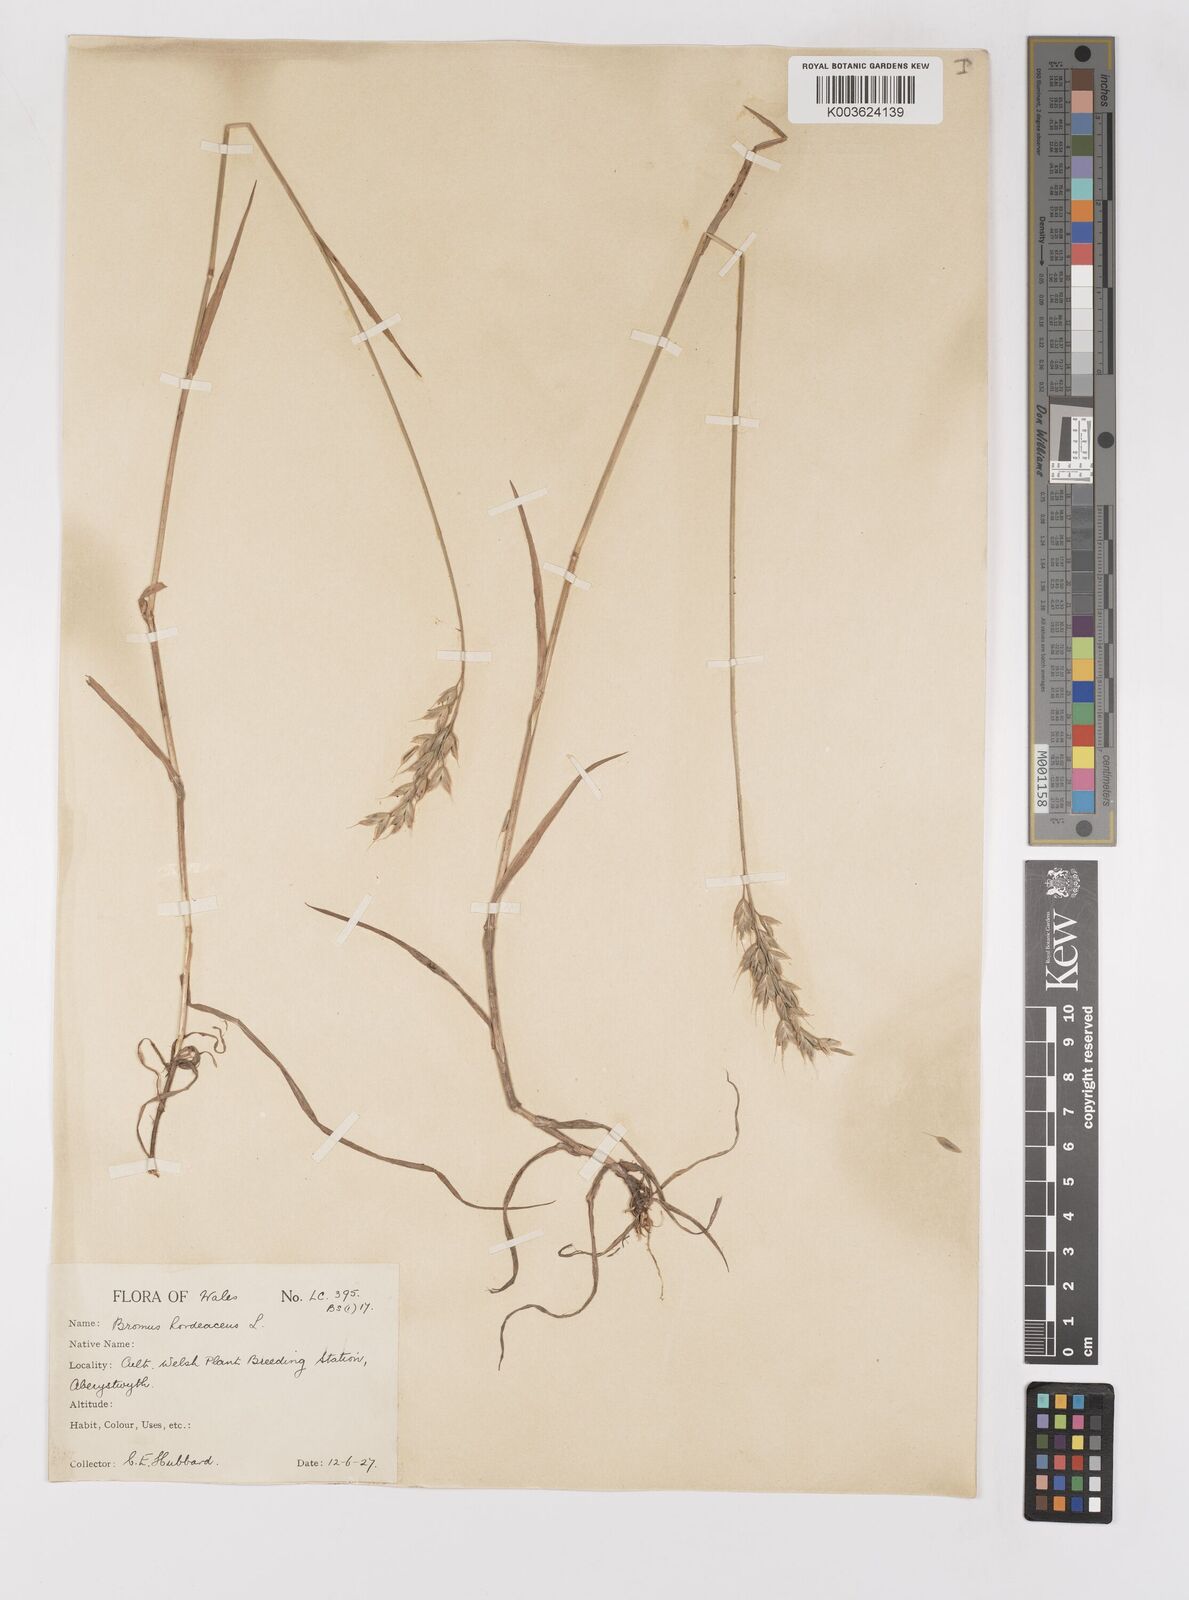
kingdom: Plantae
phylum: Tracheophyta
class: Liliopsida
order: Poales
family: Poaceae
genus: Bromus
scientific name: Bromus hordeaceus
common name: Soft brome
